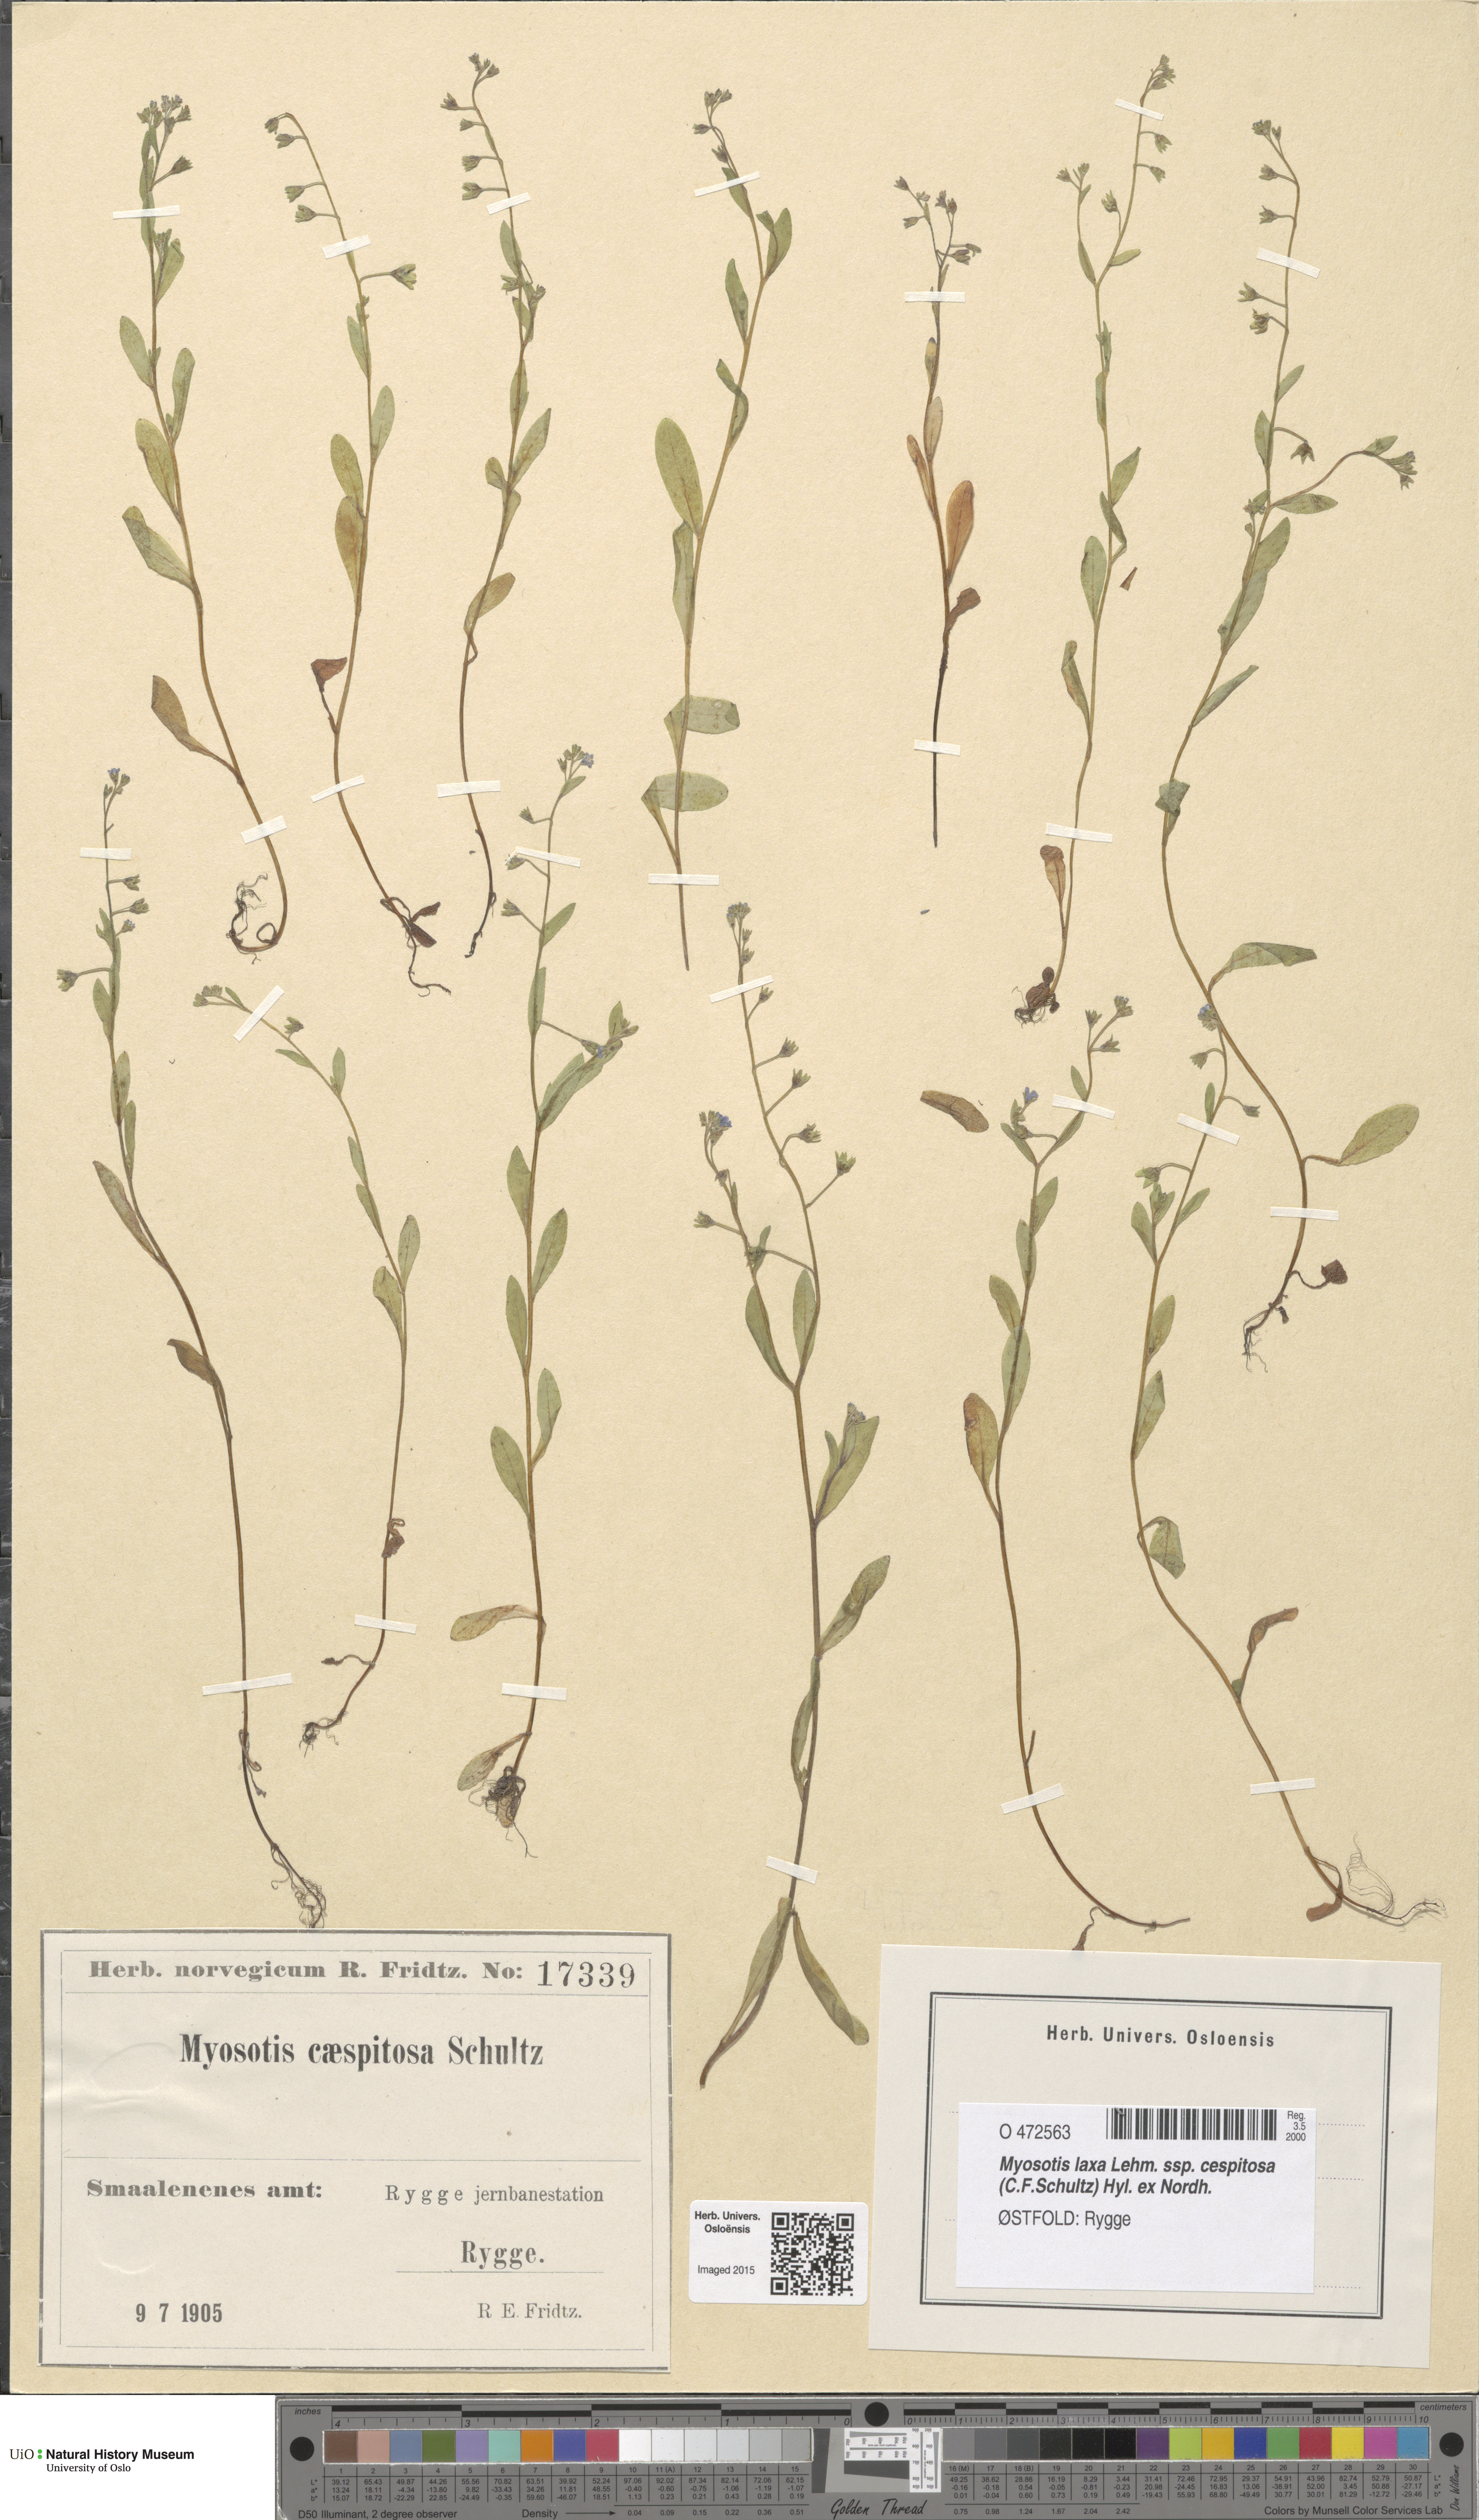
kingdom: Plantae
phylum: Tracheophyta
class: Magnoliopsida
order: Boraginales
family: Boraginaceae
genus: Myosotis
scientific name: Myosotis laxa
